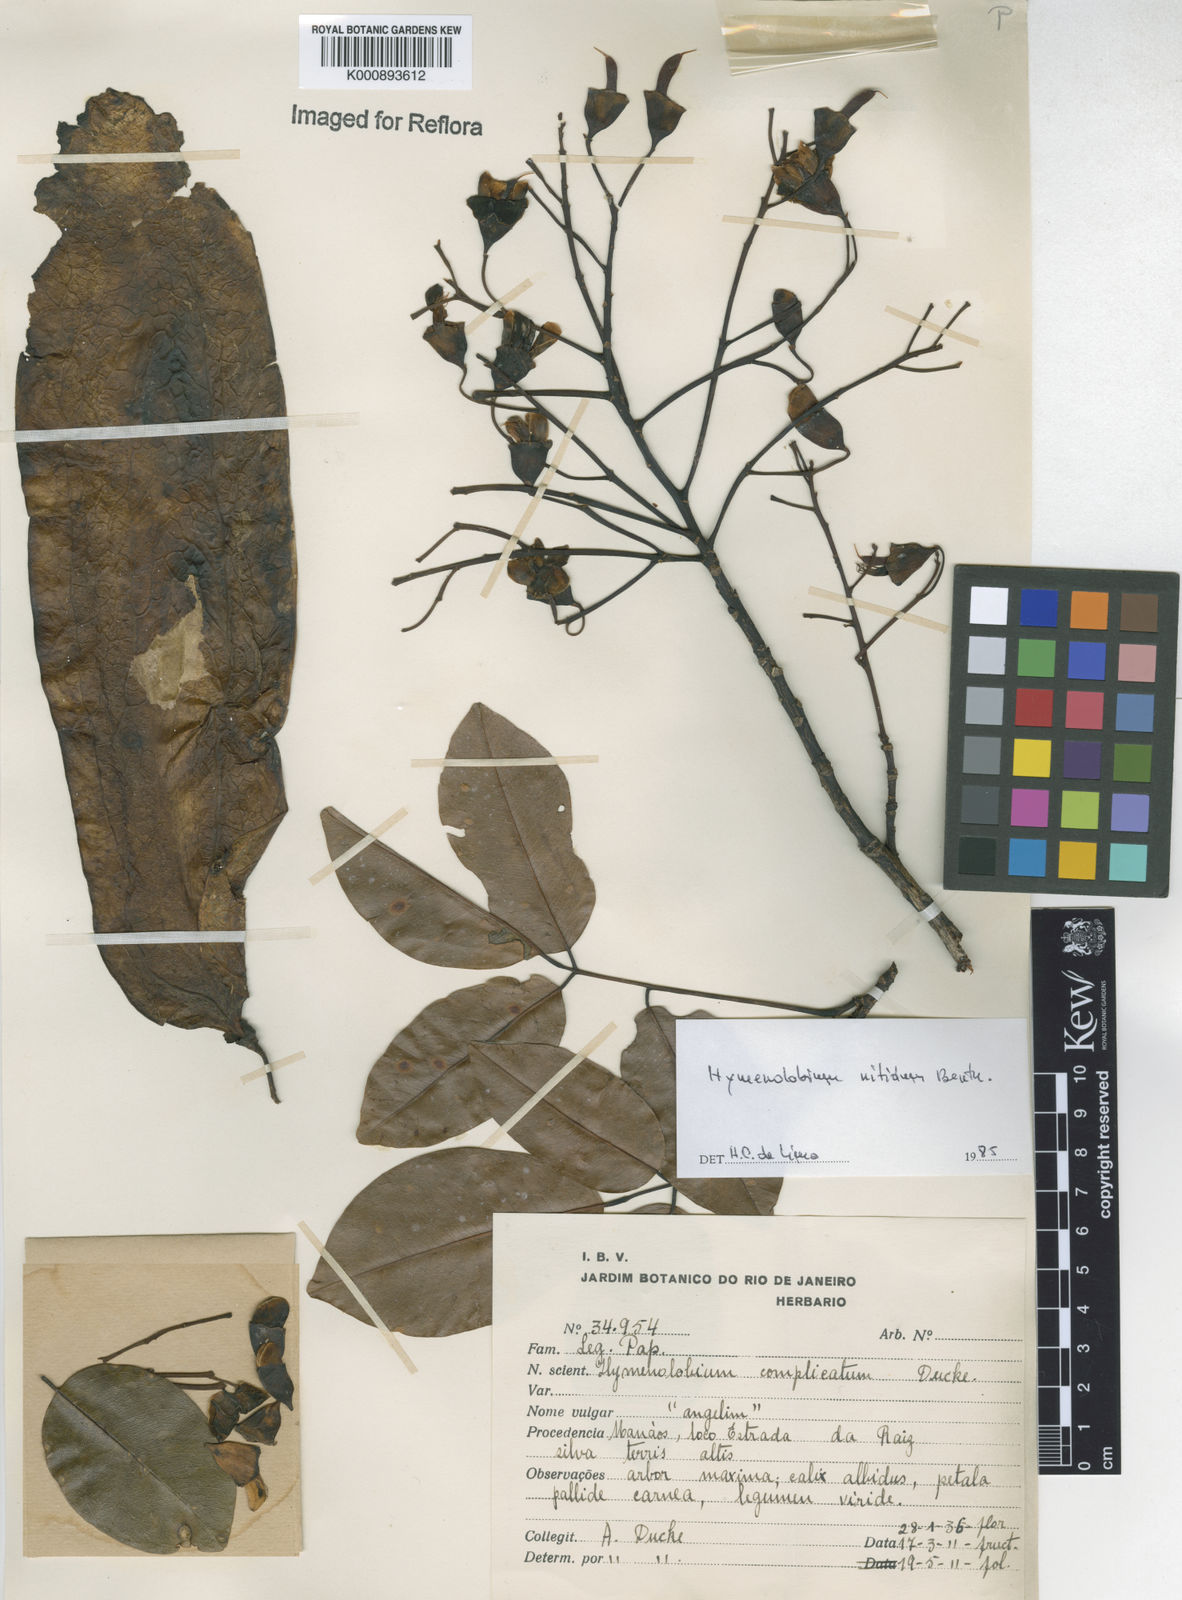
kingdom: Plantae
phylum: Tracheophyta
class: Magnoliopsida
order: Fabales
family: Fabaceae
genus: Hymenolobium
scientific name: Hymenolobium nitidum
